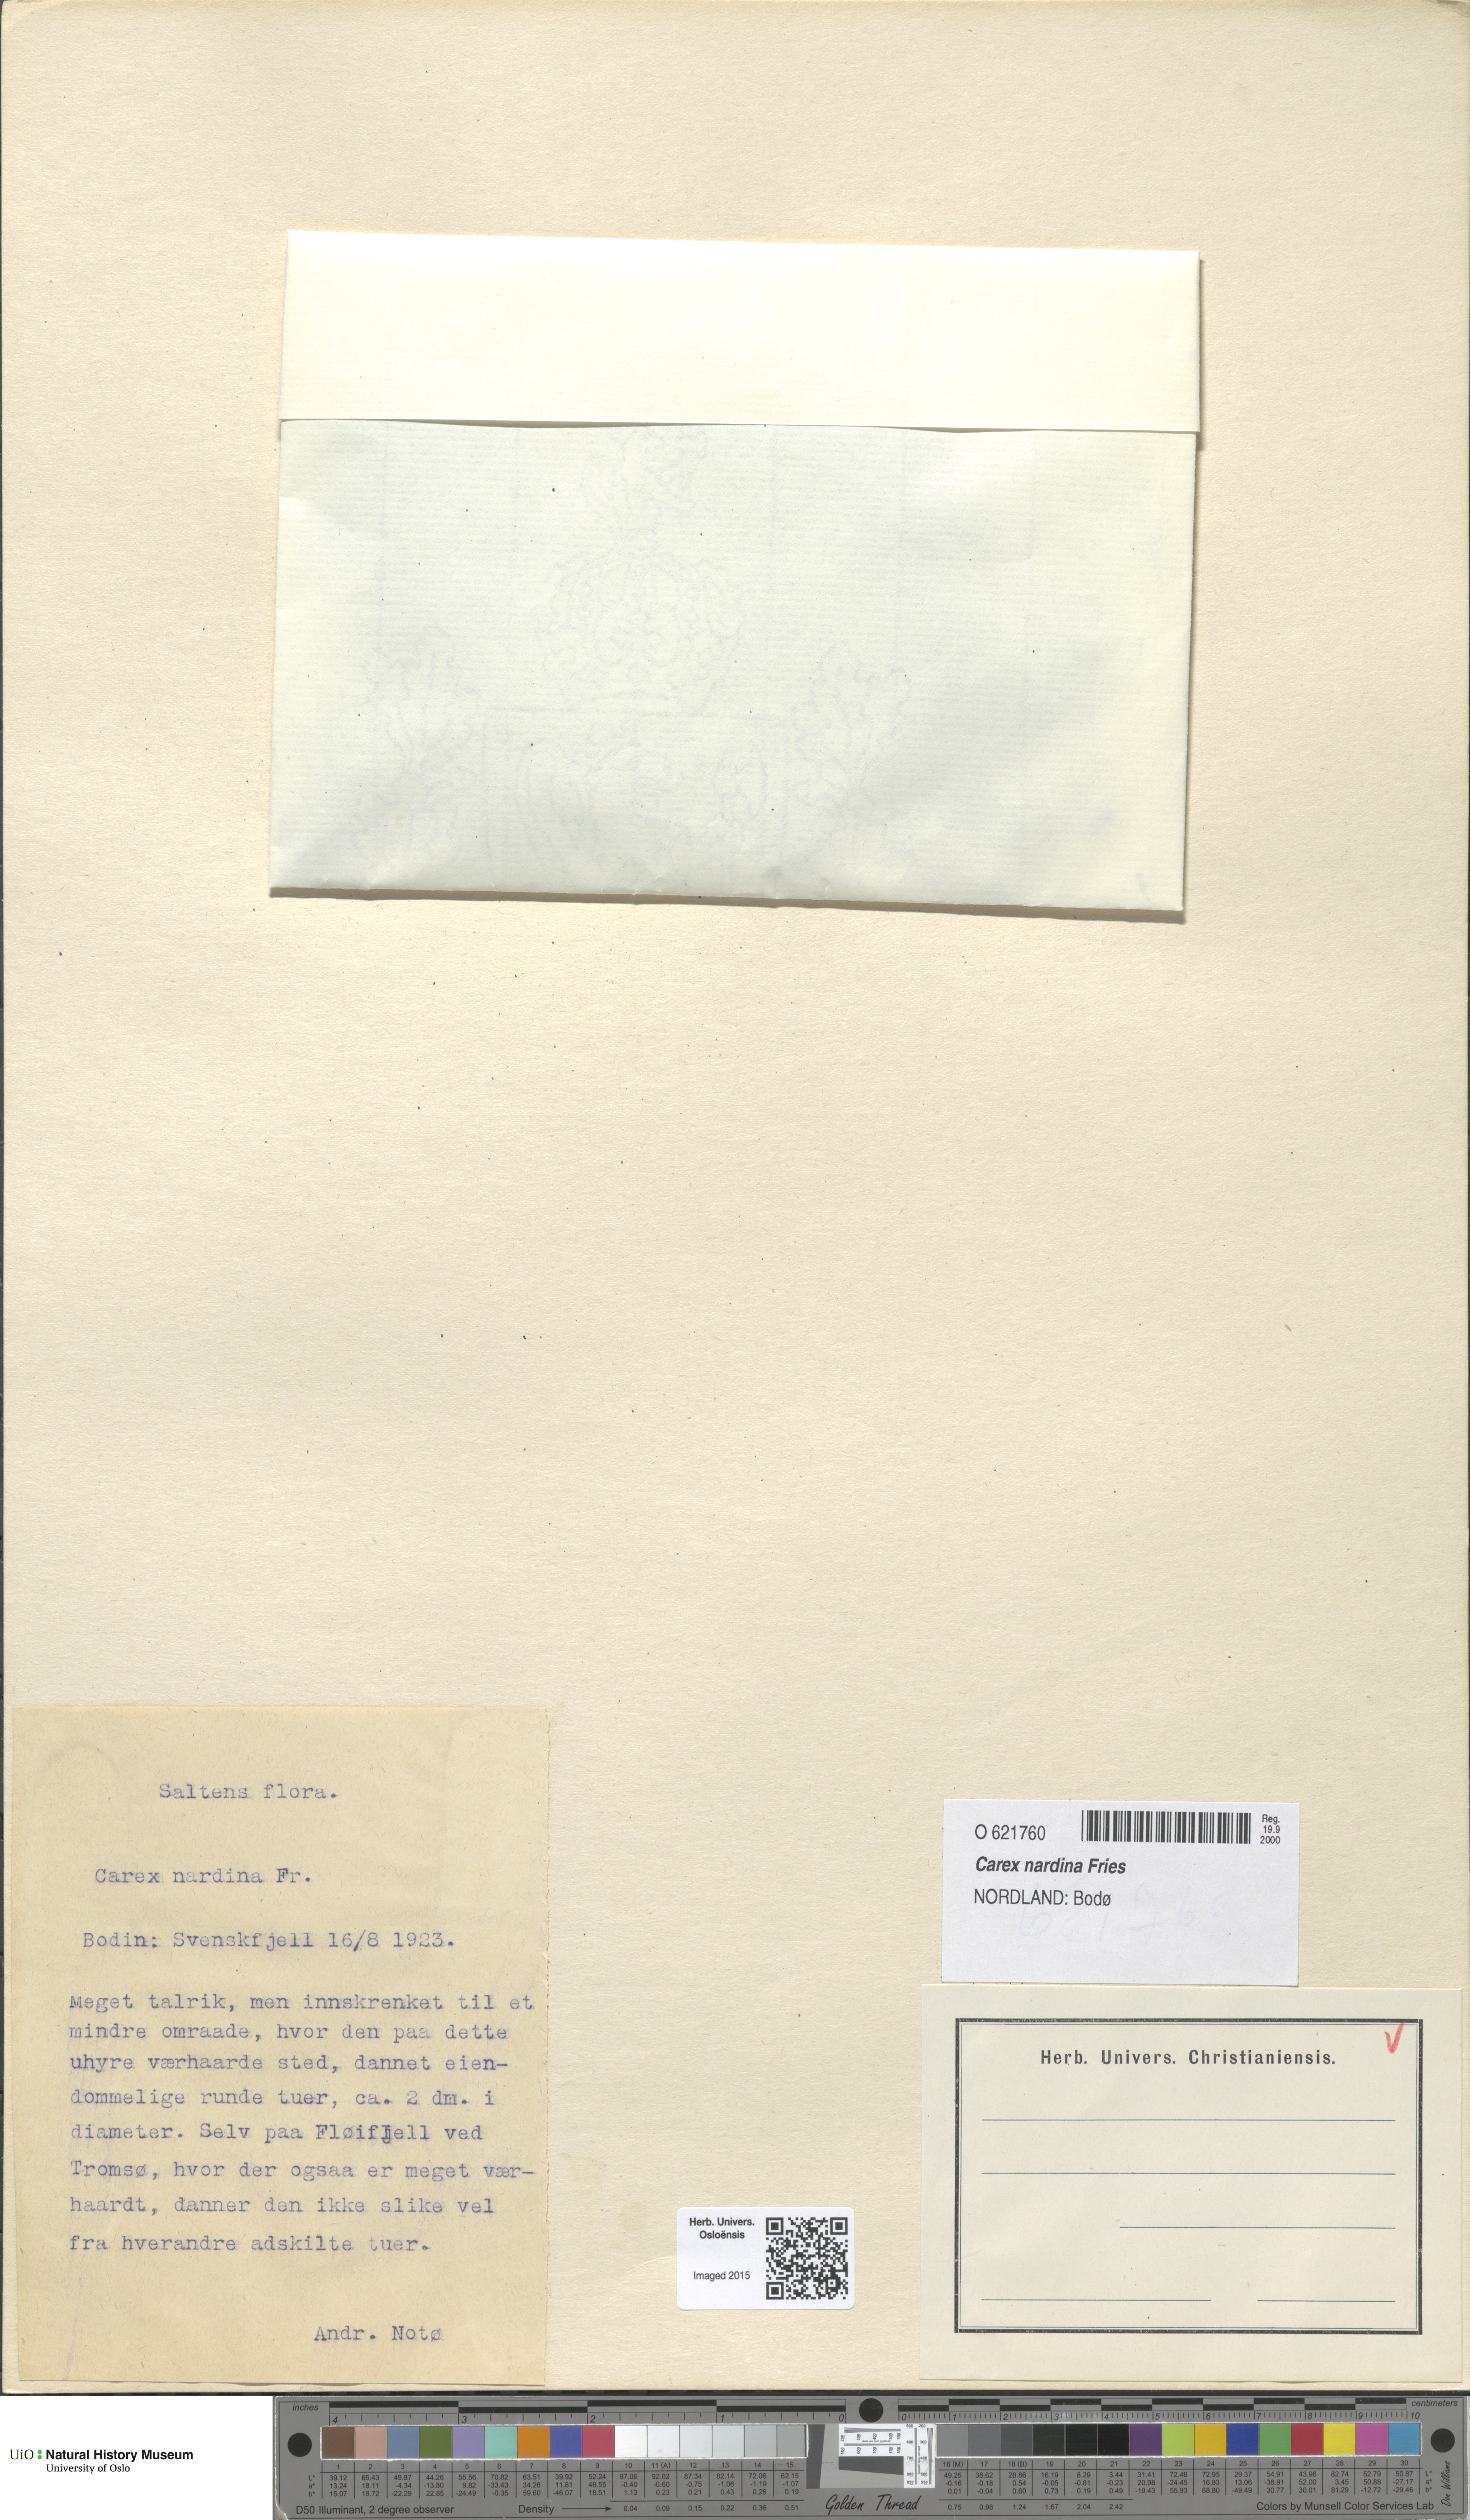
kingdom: Plantae
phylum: Tracheophyta
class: Liliopsida
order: Poales
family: Cyperaceae
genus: Carex
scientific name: Carex nardina
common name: Nard sedge
